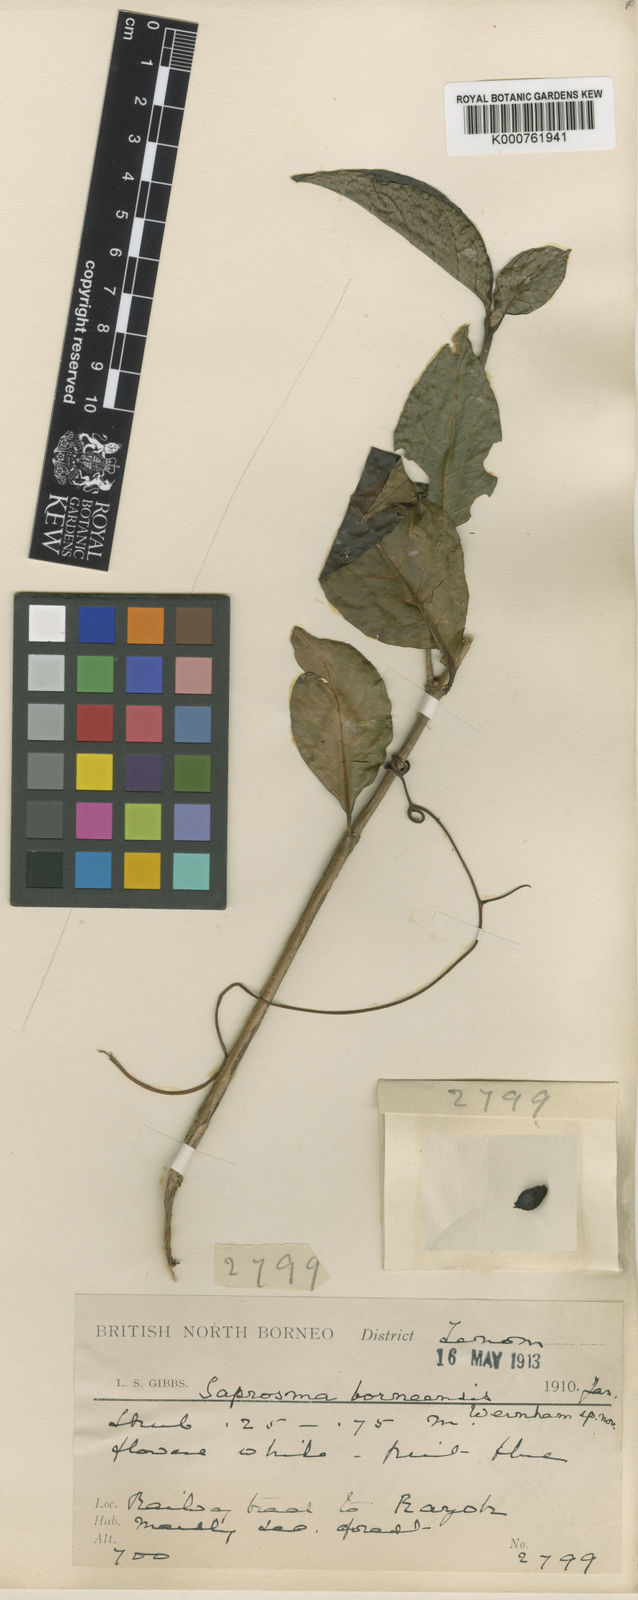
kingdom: Plantae
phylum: Tracheophyta
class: Magnoliopsida
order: Gentianales
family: Rubiaceae
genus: Saprosma
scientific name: Saprosma borneensis
